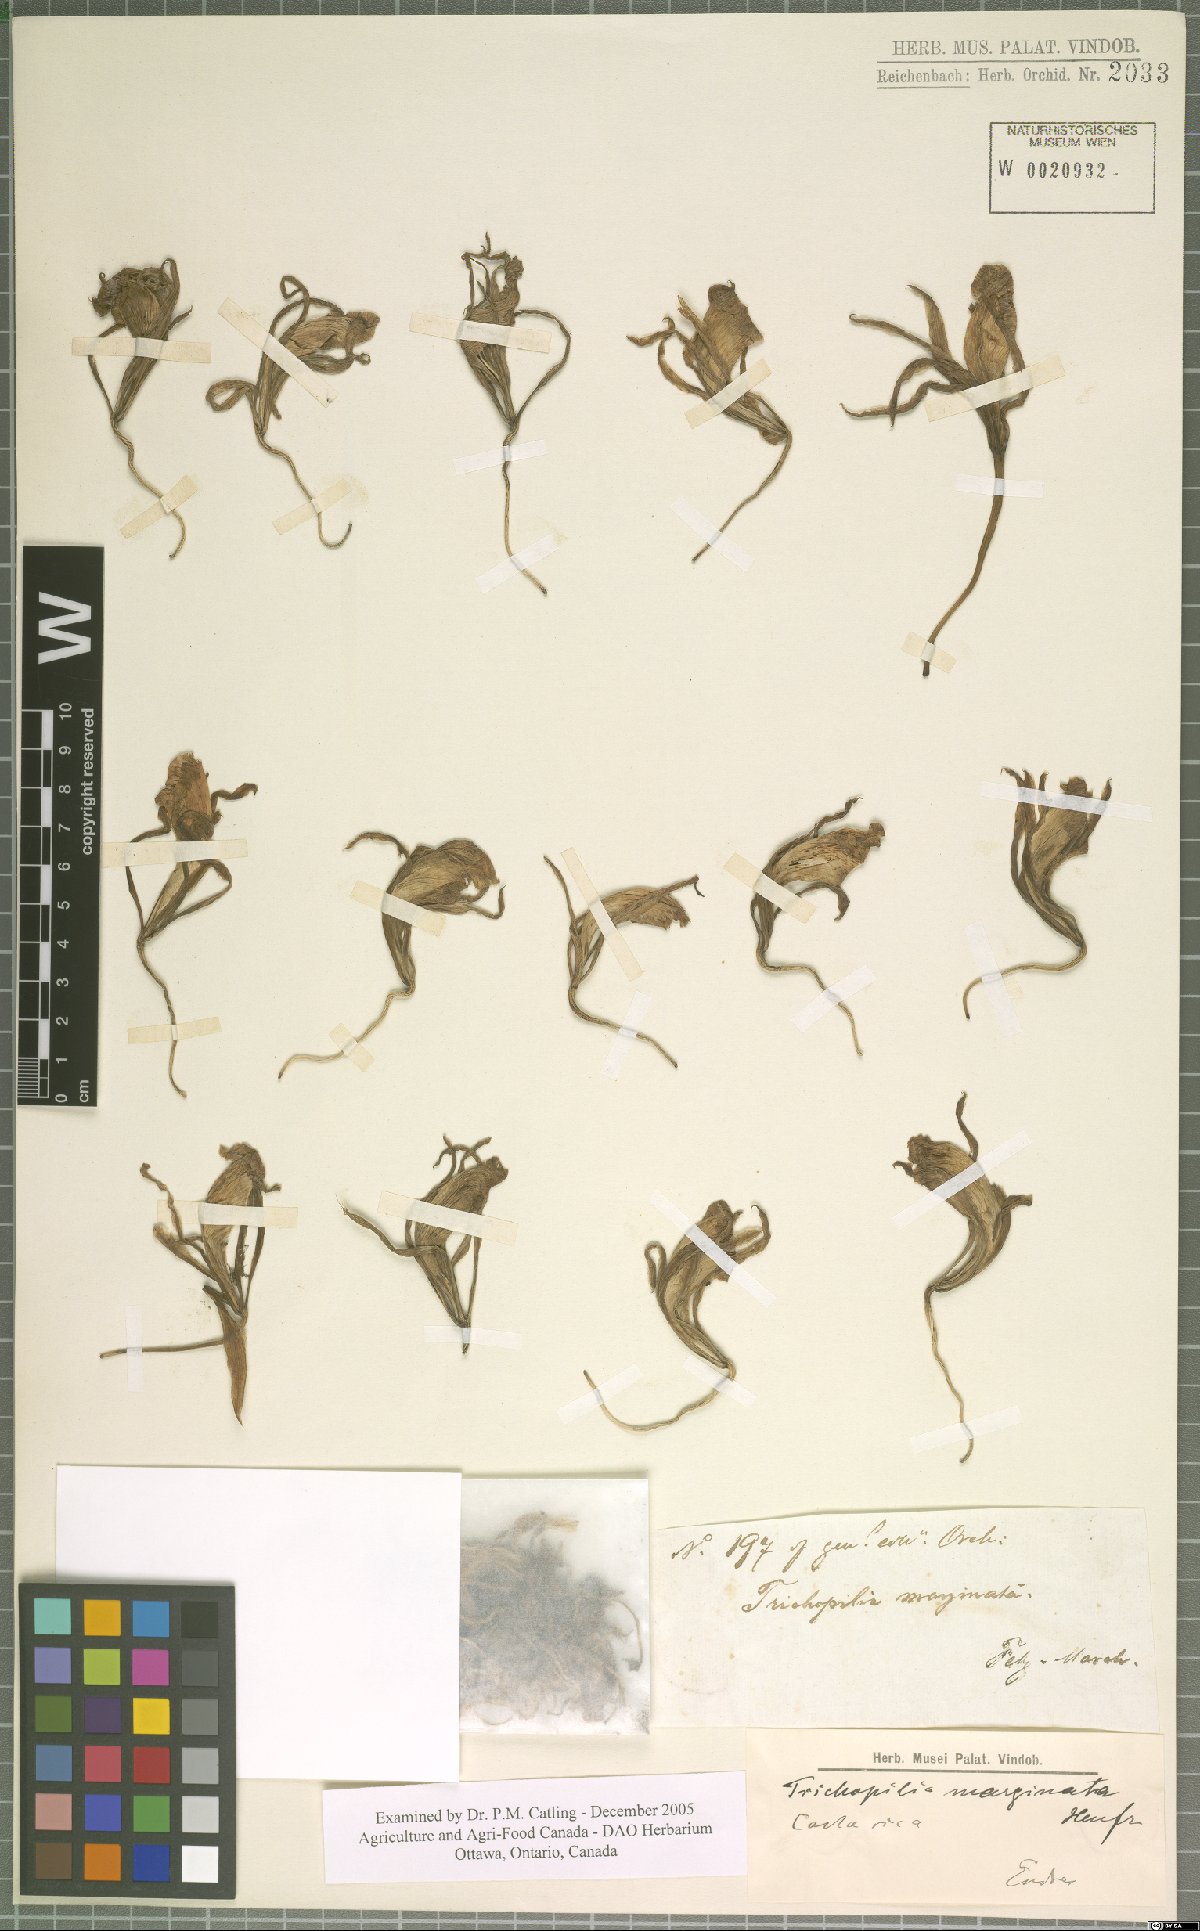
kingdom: Plantae
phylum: Tracheophyta
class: Liliopsida
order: Asparagales
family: Orchidaceae
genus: Trichopilia
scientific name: Trichopilia marginata
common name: Rimmed trichopilia
